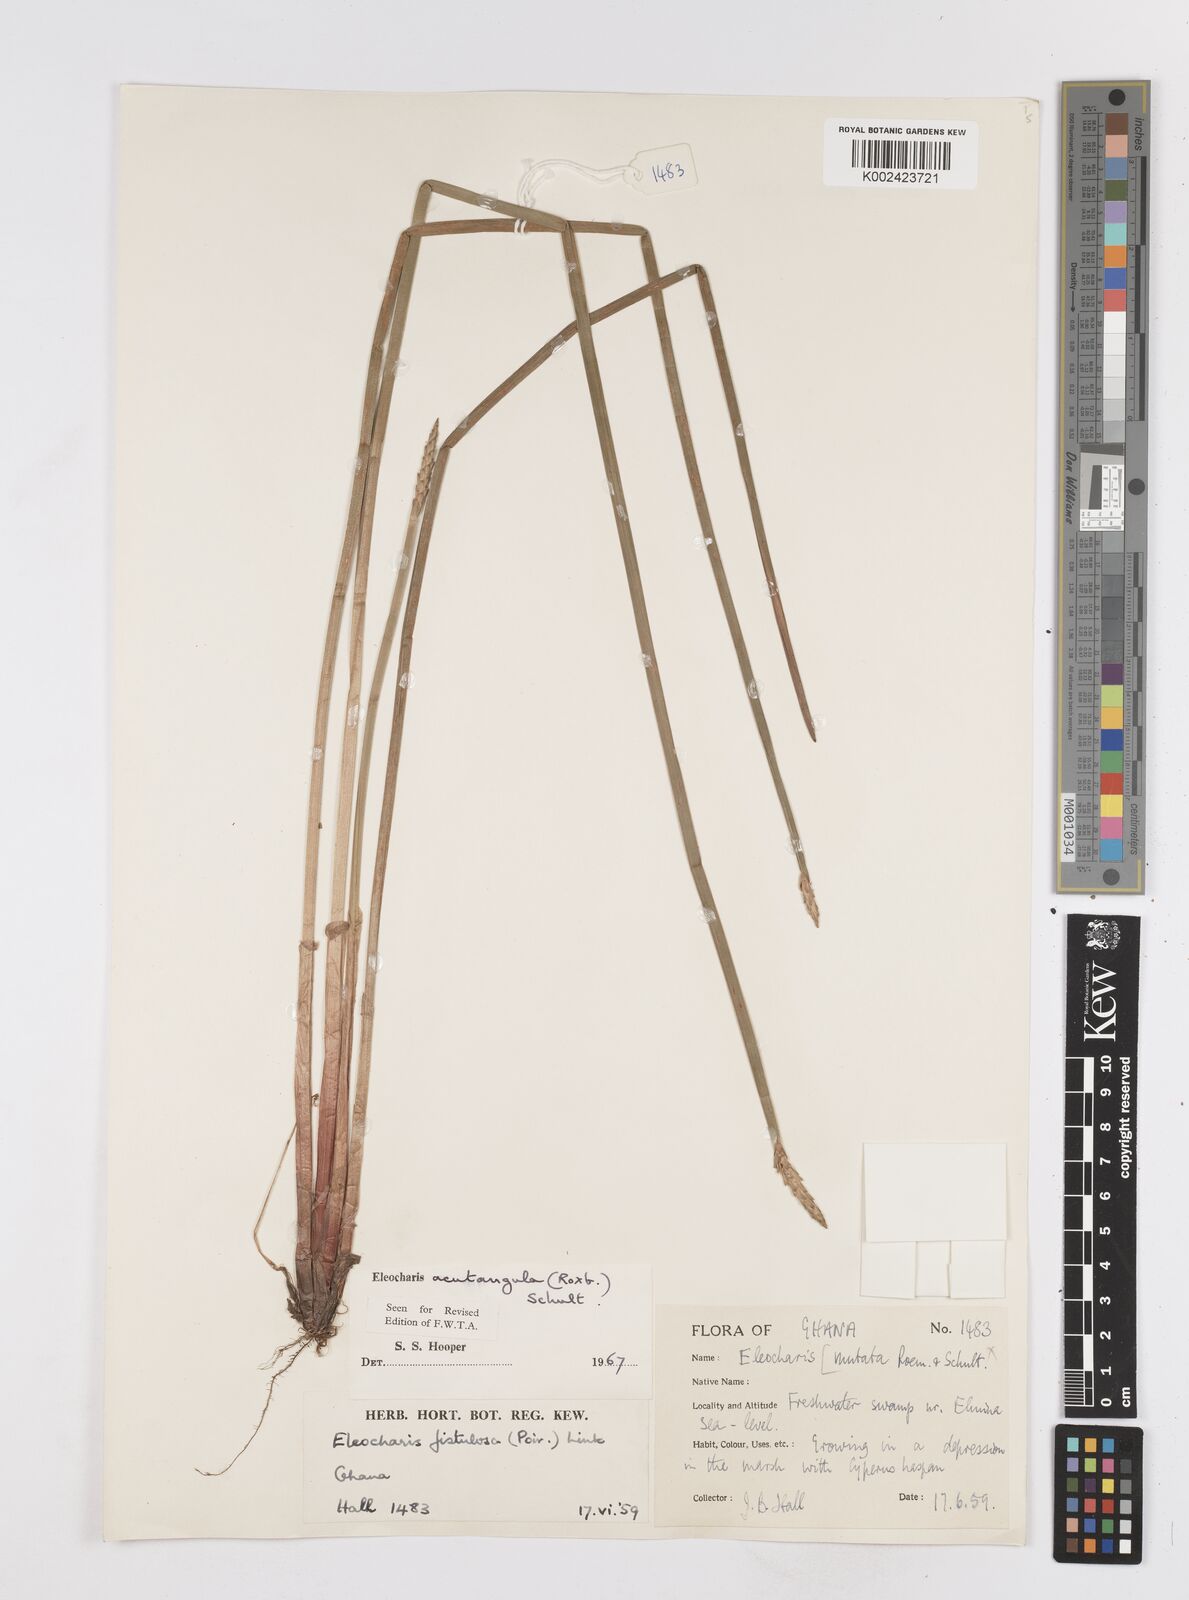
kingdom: Plantae
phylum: Tracheophyta
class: Liliopsida
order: Poales
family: Cyperaceae
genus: Eleocharis
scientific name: Eleocharis acutangula
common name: Acute spikerush
